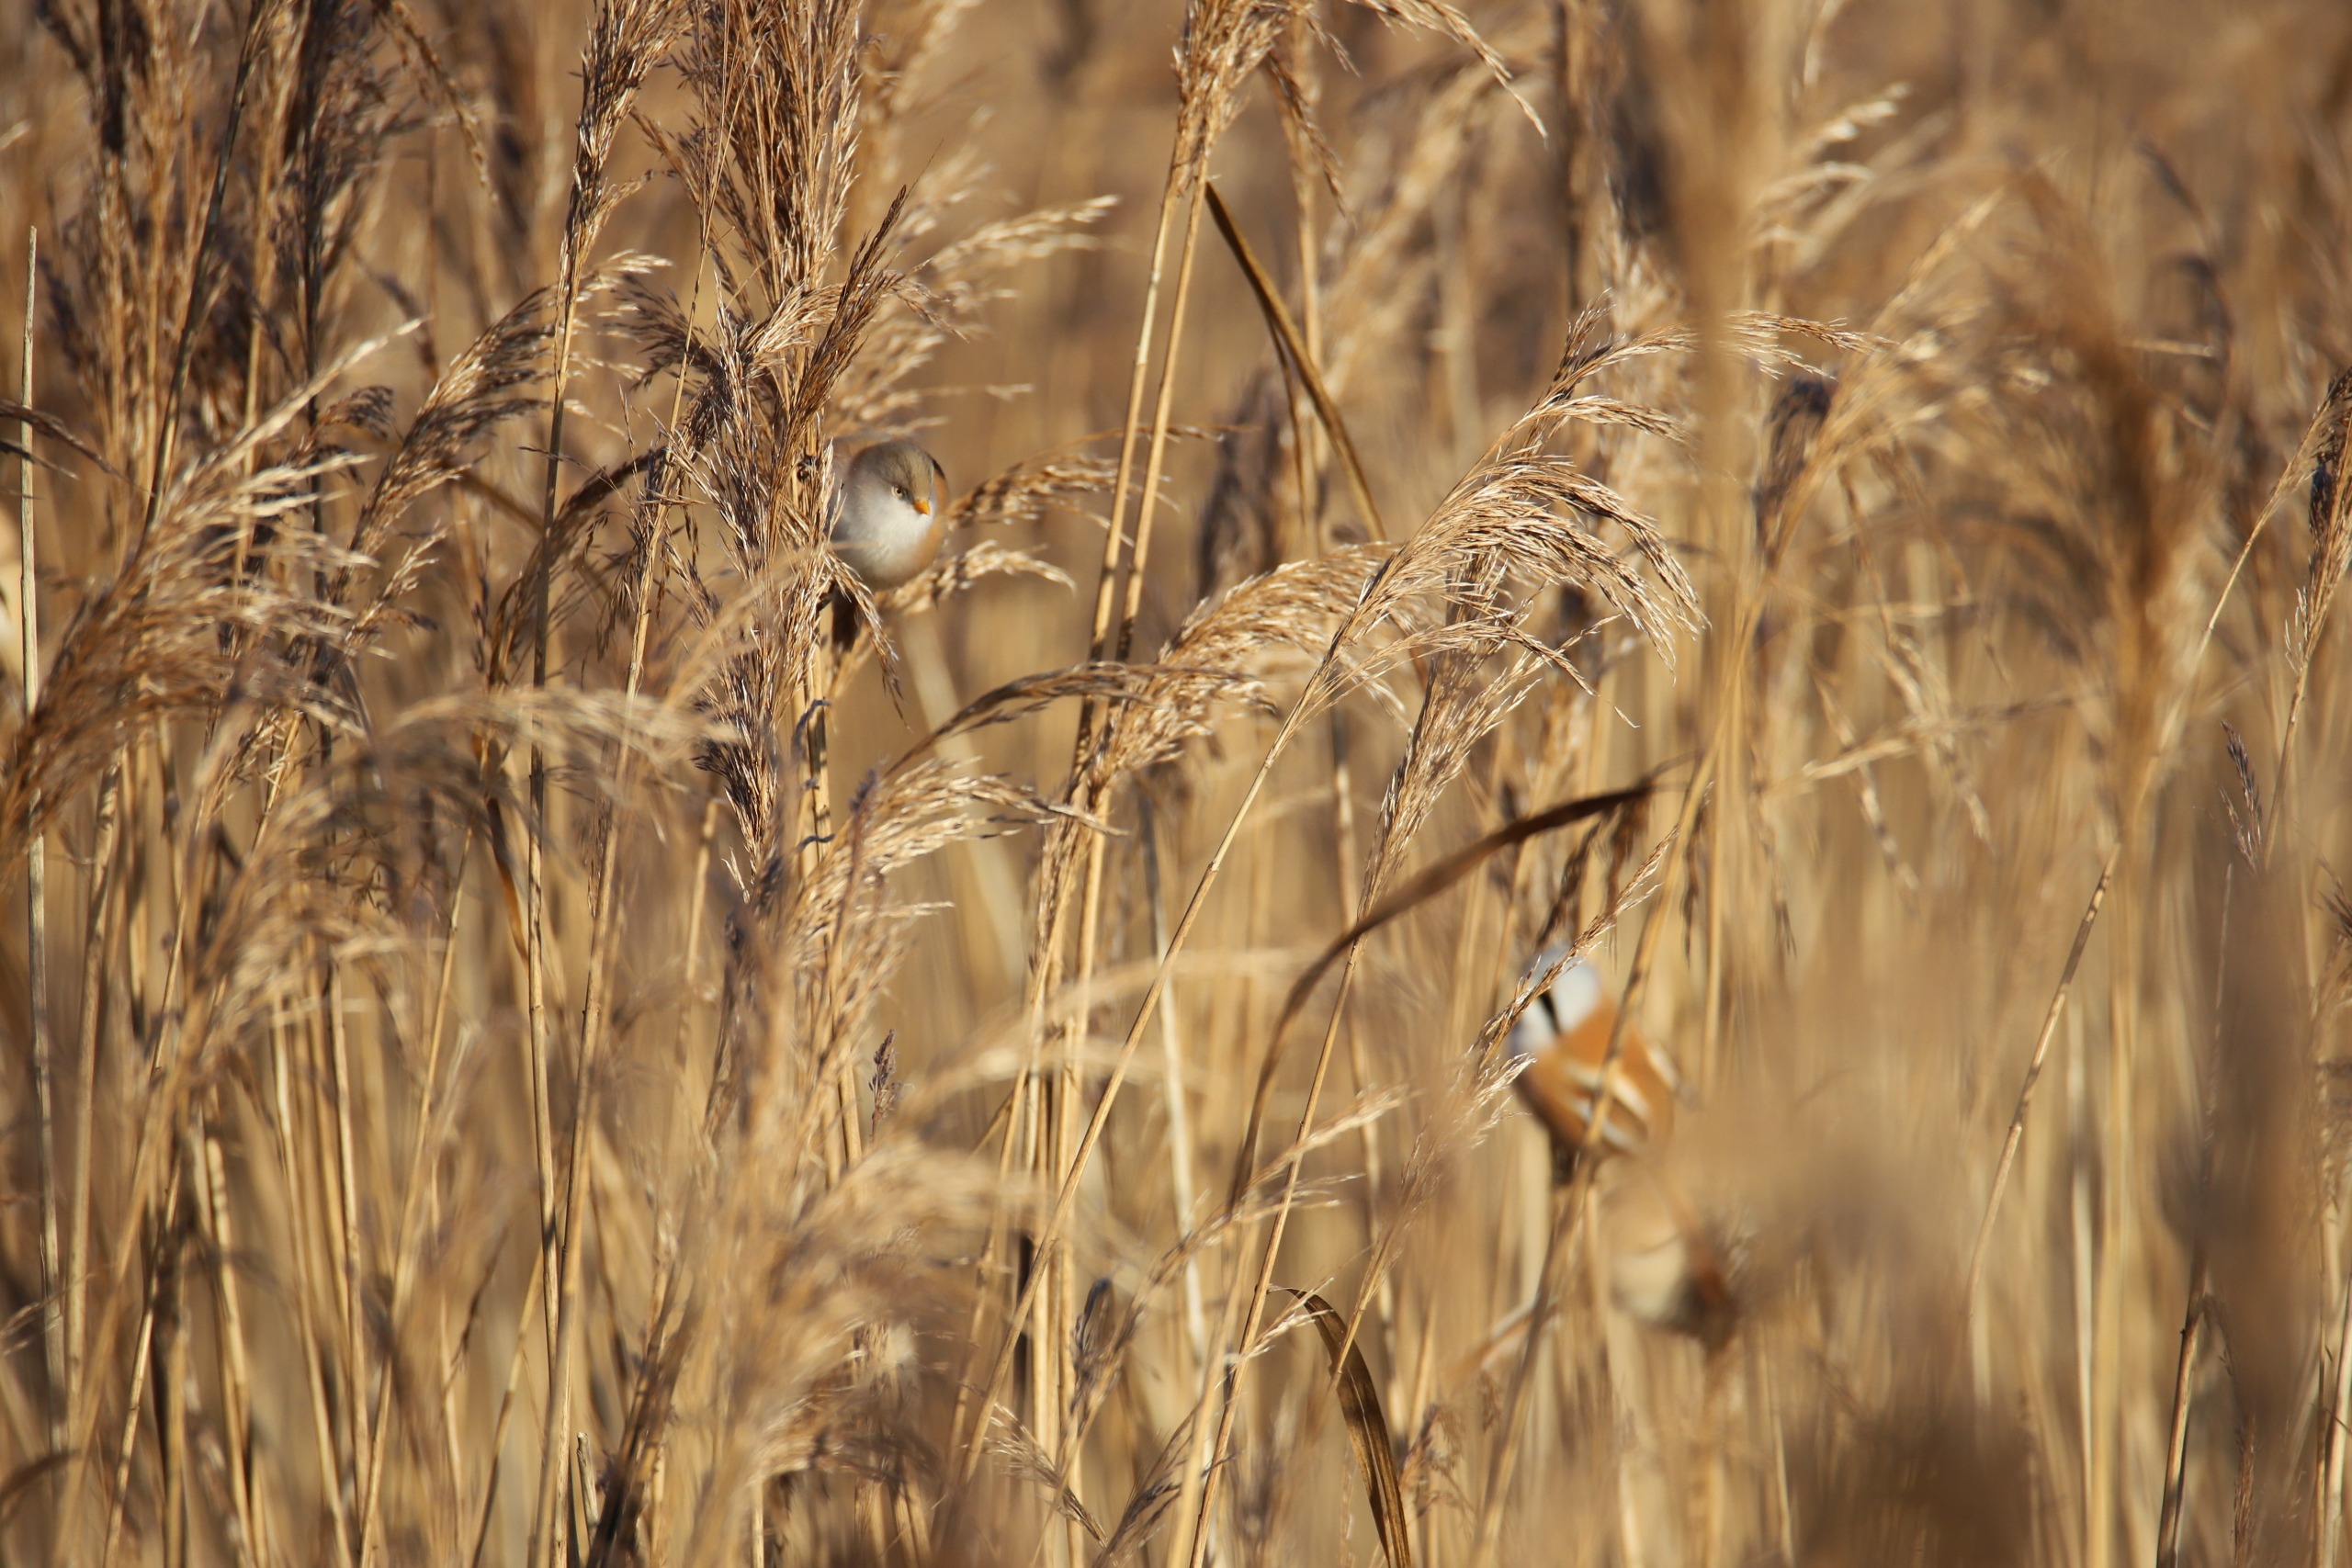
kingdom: Animalia
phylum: Chordata
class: Aves
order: Passeriformes
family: Panuridae
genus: Panurus
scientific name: Panurus biarmicus
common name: Skægmejse
